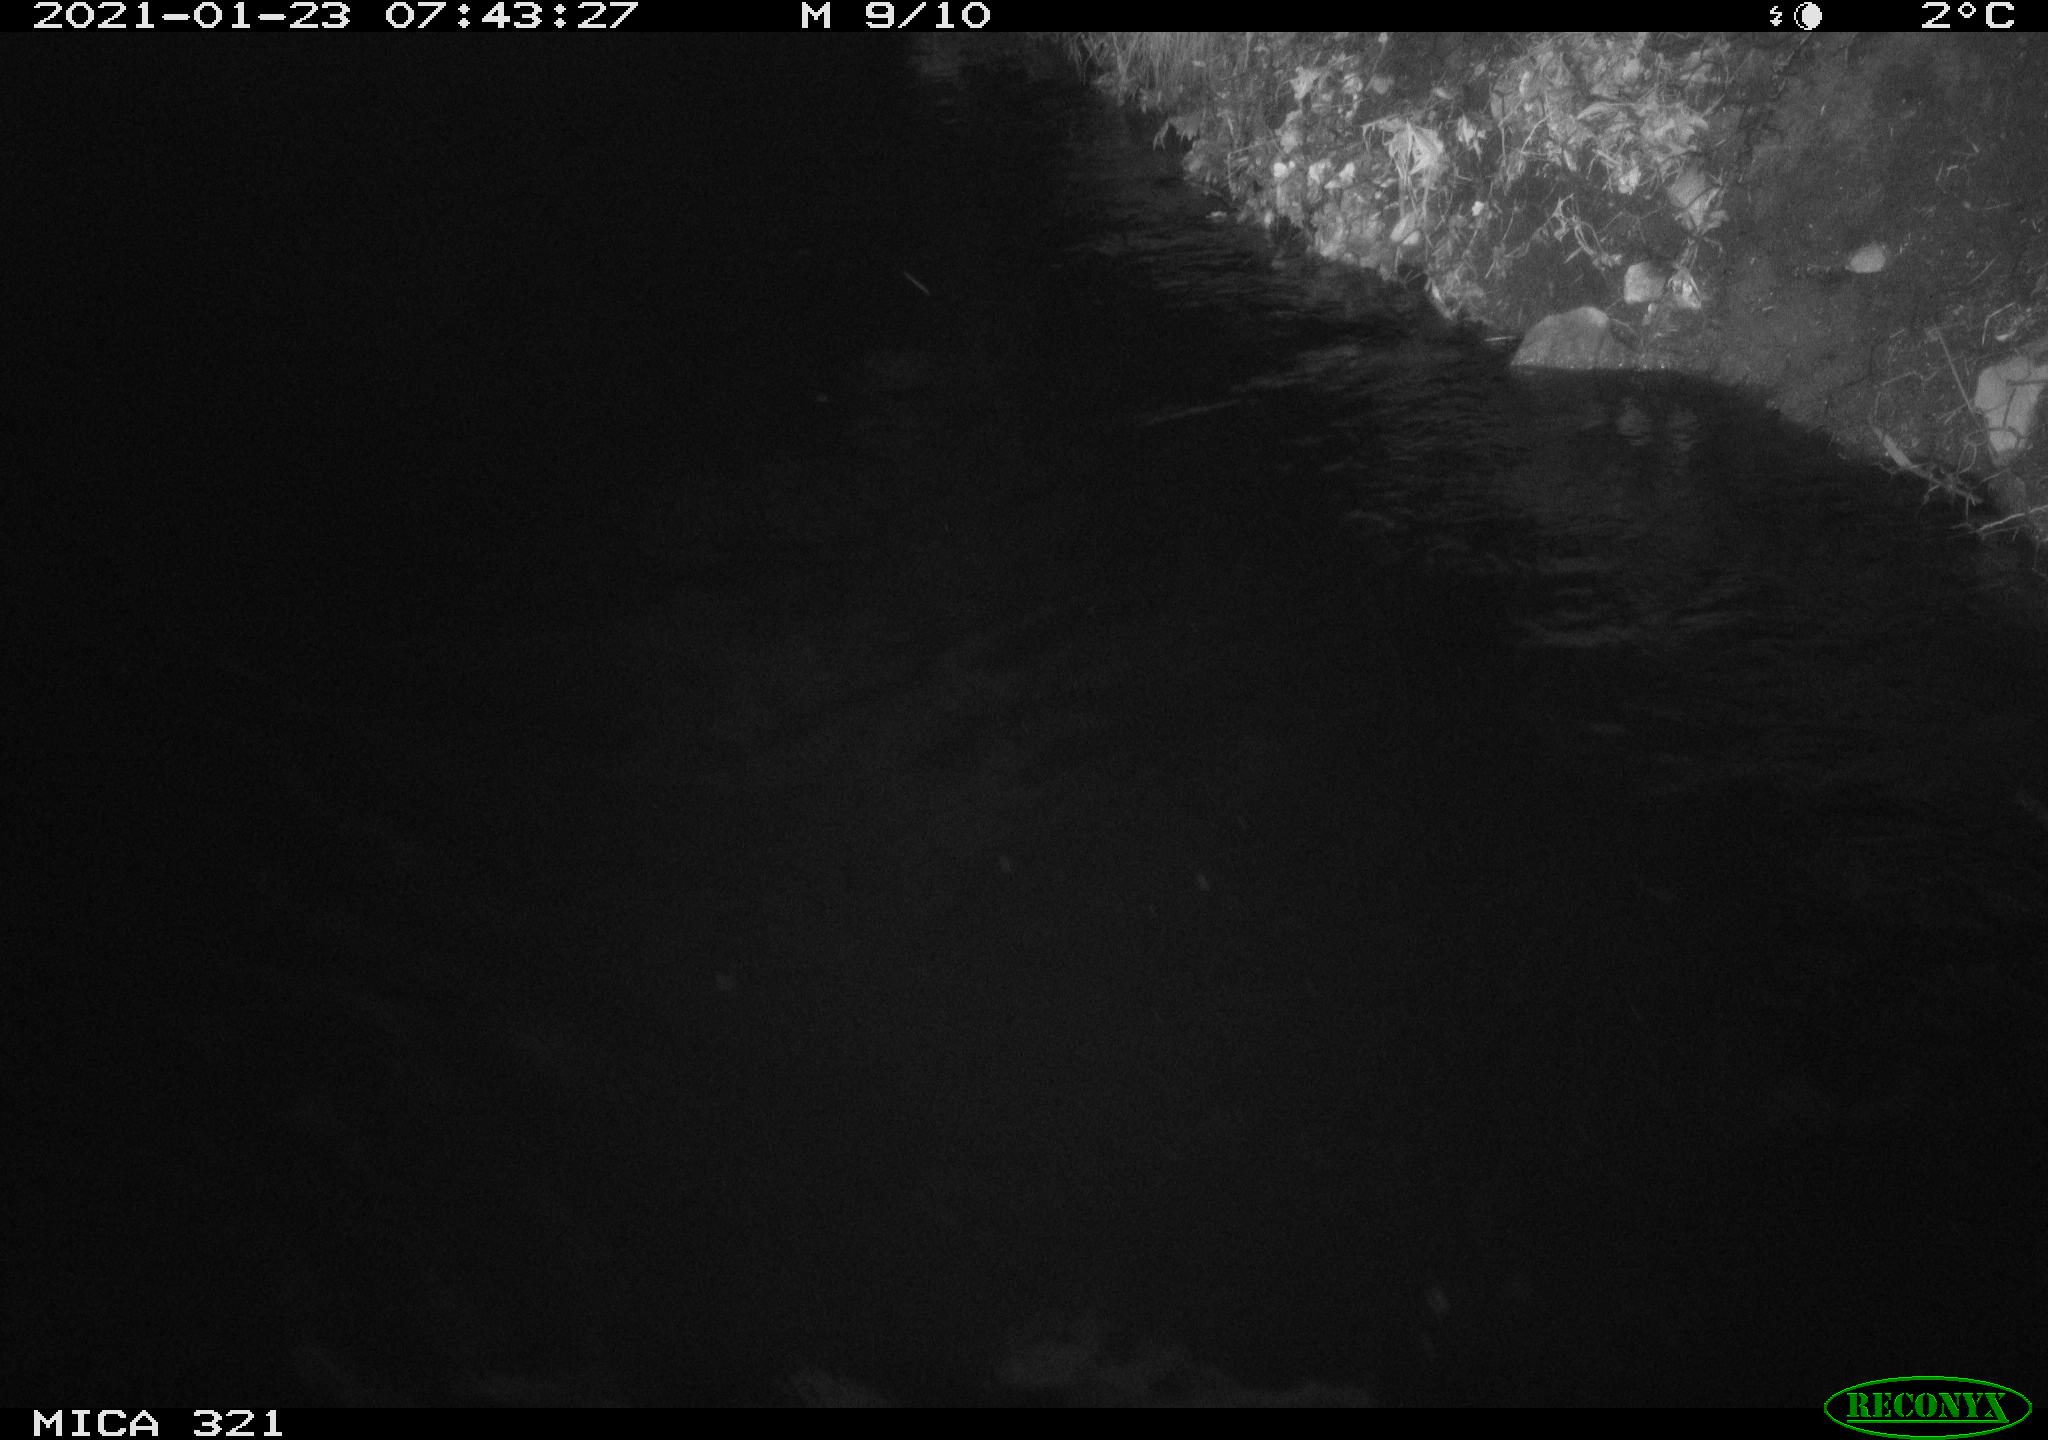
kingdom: Animalia
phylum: Chordata
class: Aves
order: Anseriformes
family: Anatidae
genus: Anas
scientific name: Anas platyrhynchos
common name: Mallard
